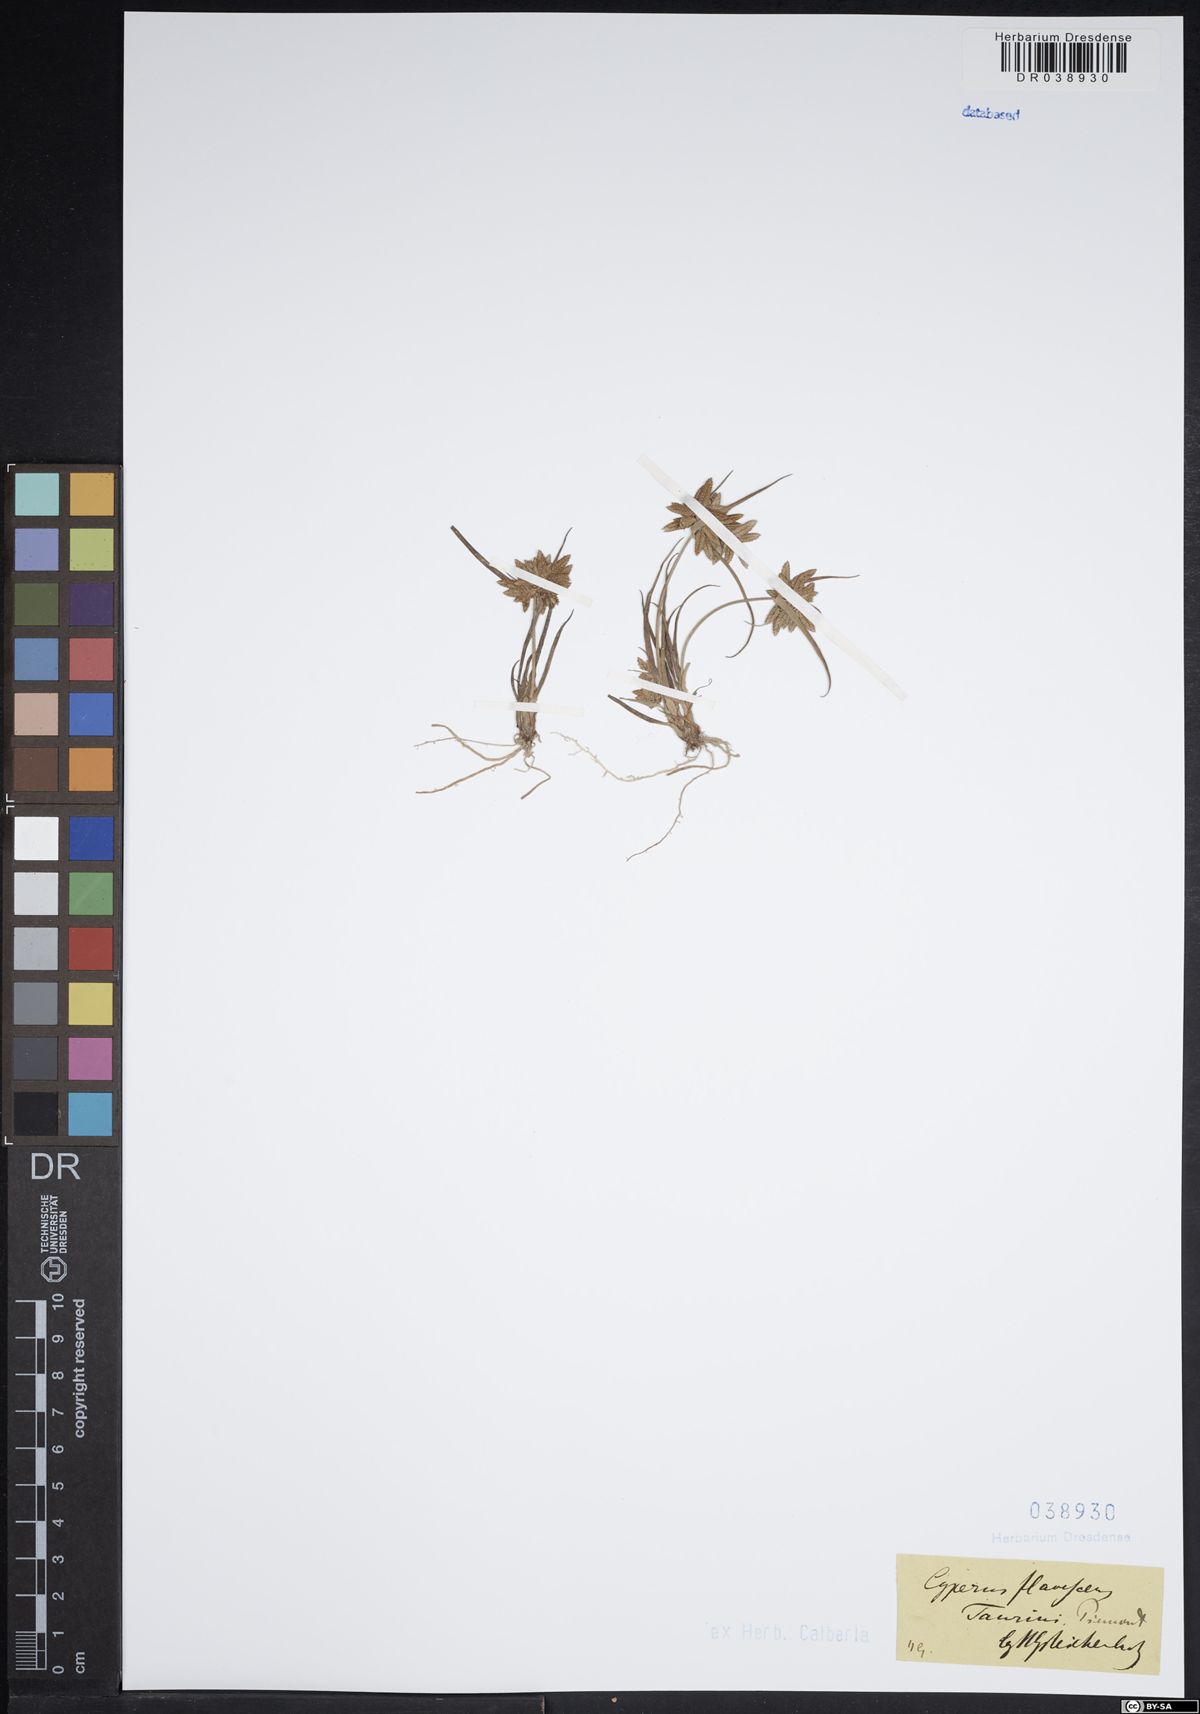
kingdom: Plantae
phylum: Tracheophyta
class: Liliopsida
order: Poales
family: Cyperaceae
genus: Cyperus
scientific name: Cyperus flavescens
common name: Yellow galingale
